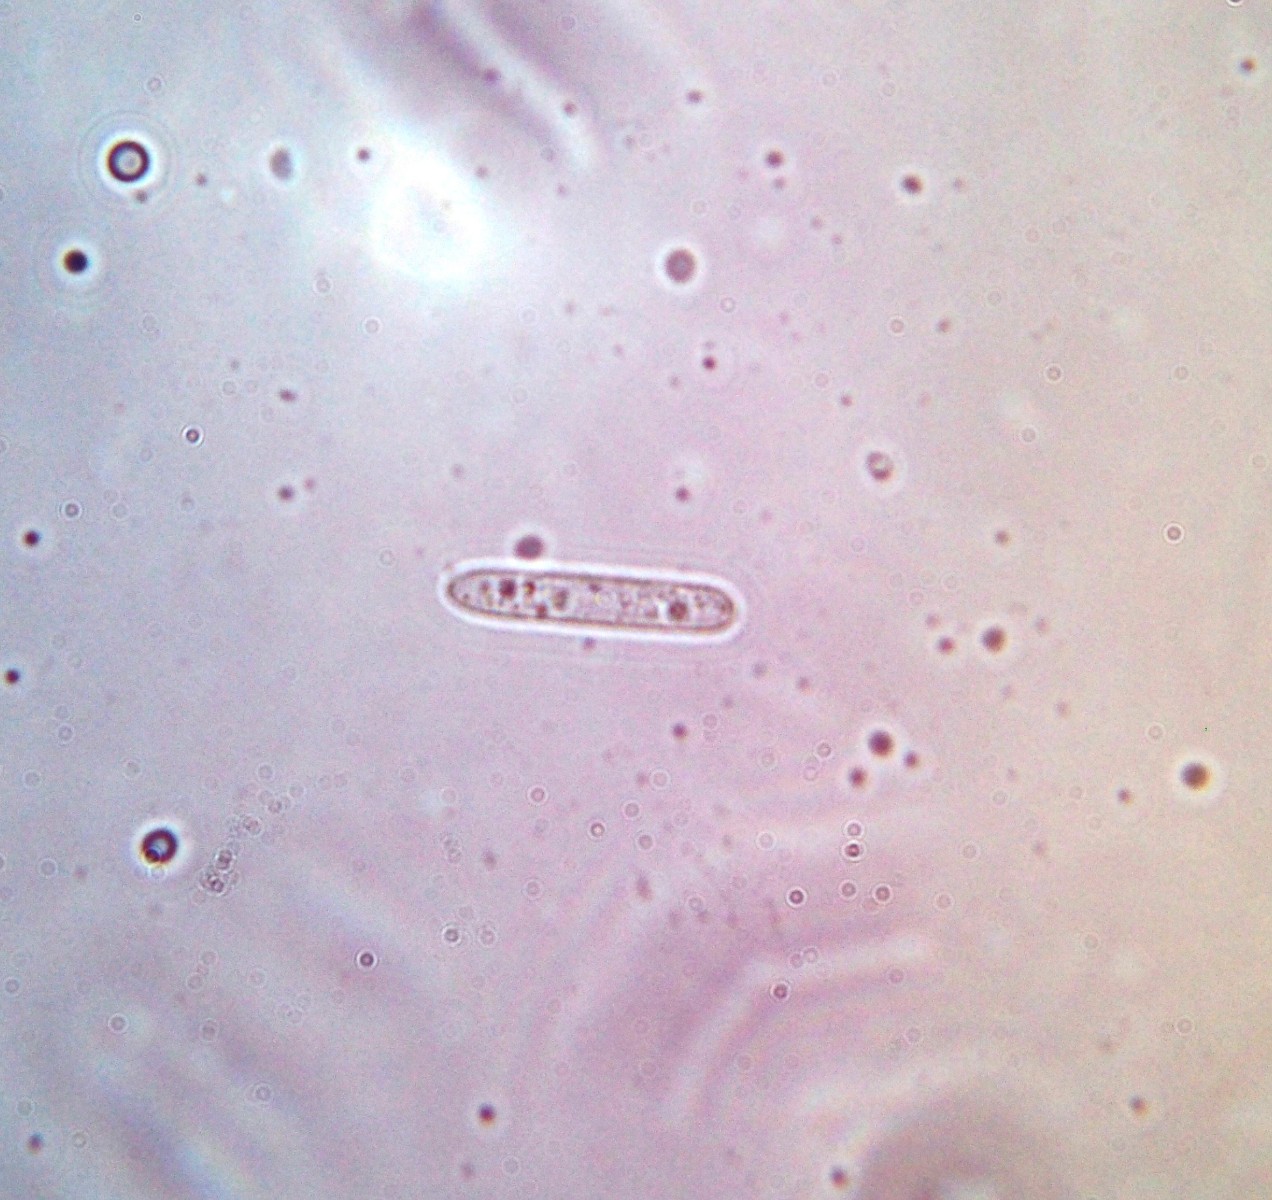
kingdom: Fungi
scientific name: Fungi
